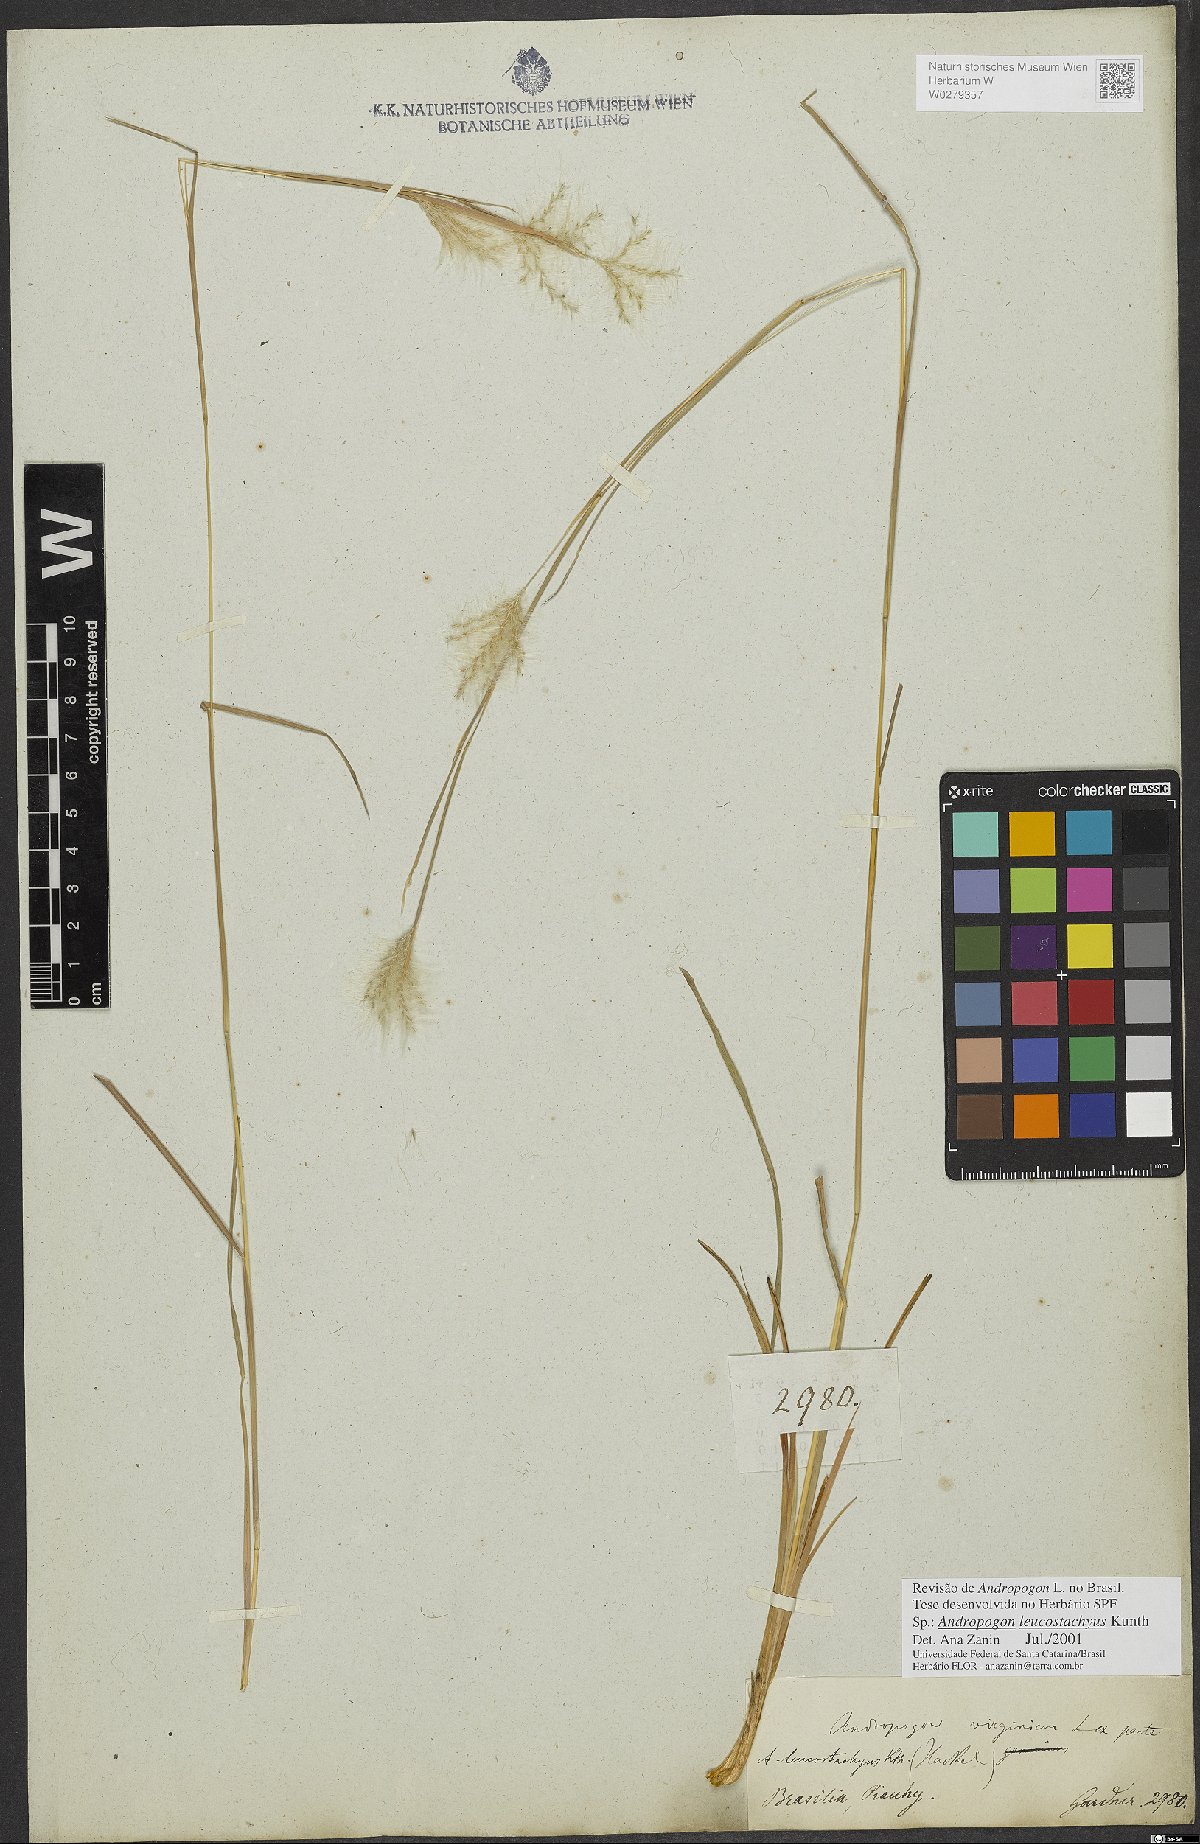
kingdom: Plantae
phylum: Tracheophyta
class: Liliopsida
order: Poales
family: Poaceae
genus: Andropogon
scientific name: Andropogon leucostachyus
